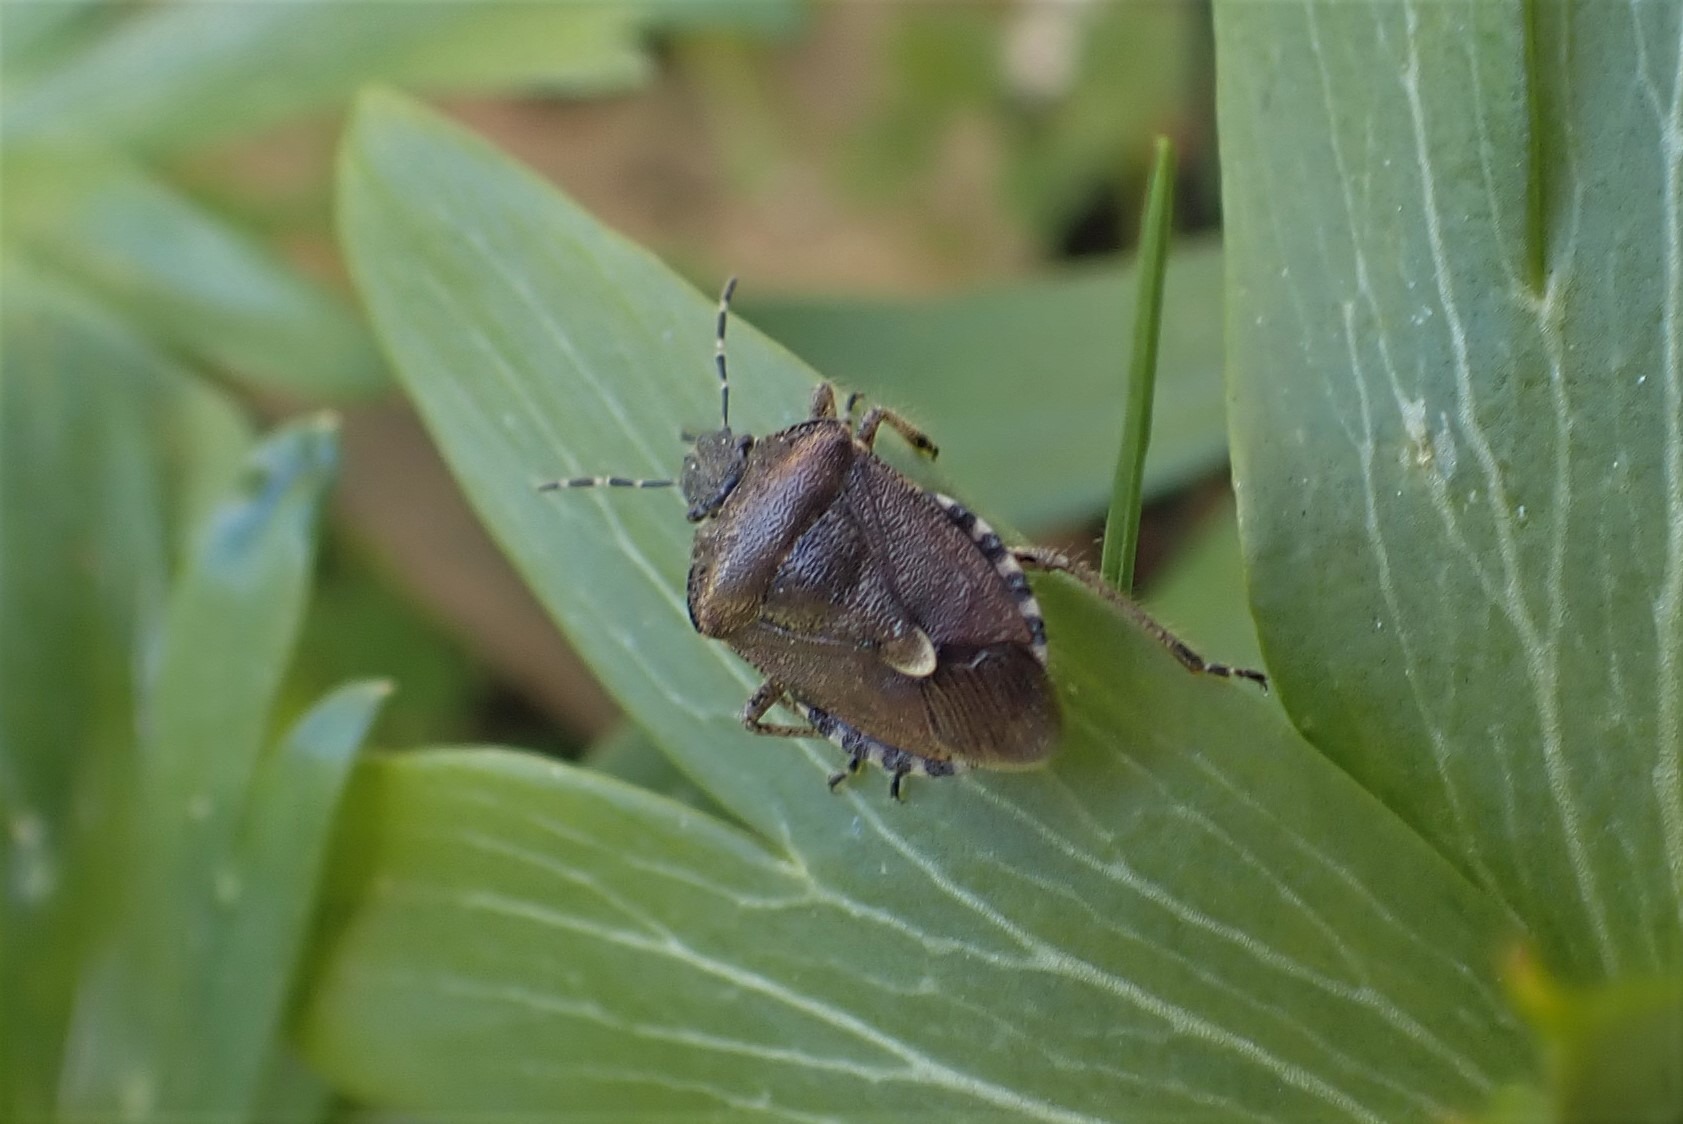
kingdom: Animalia
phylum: Arthropoda
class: Insecta
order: Hemiptera
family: Pentatomidae
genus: Dolycoris
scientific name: Dolycoris baccarum
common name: Almindelig bærtæge
